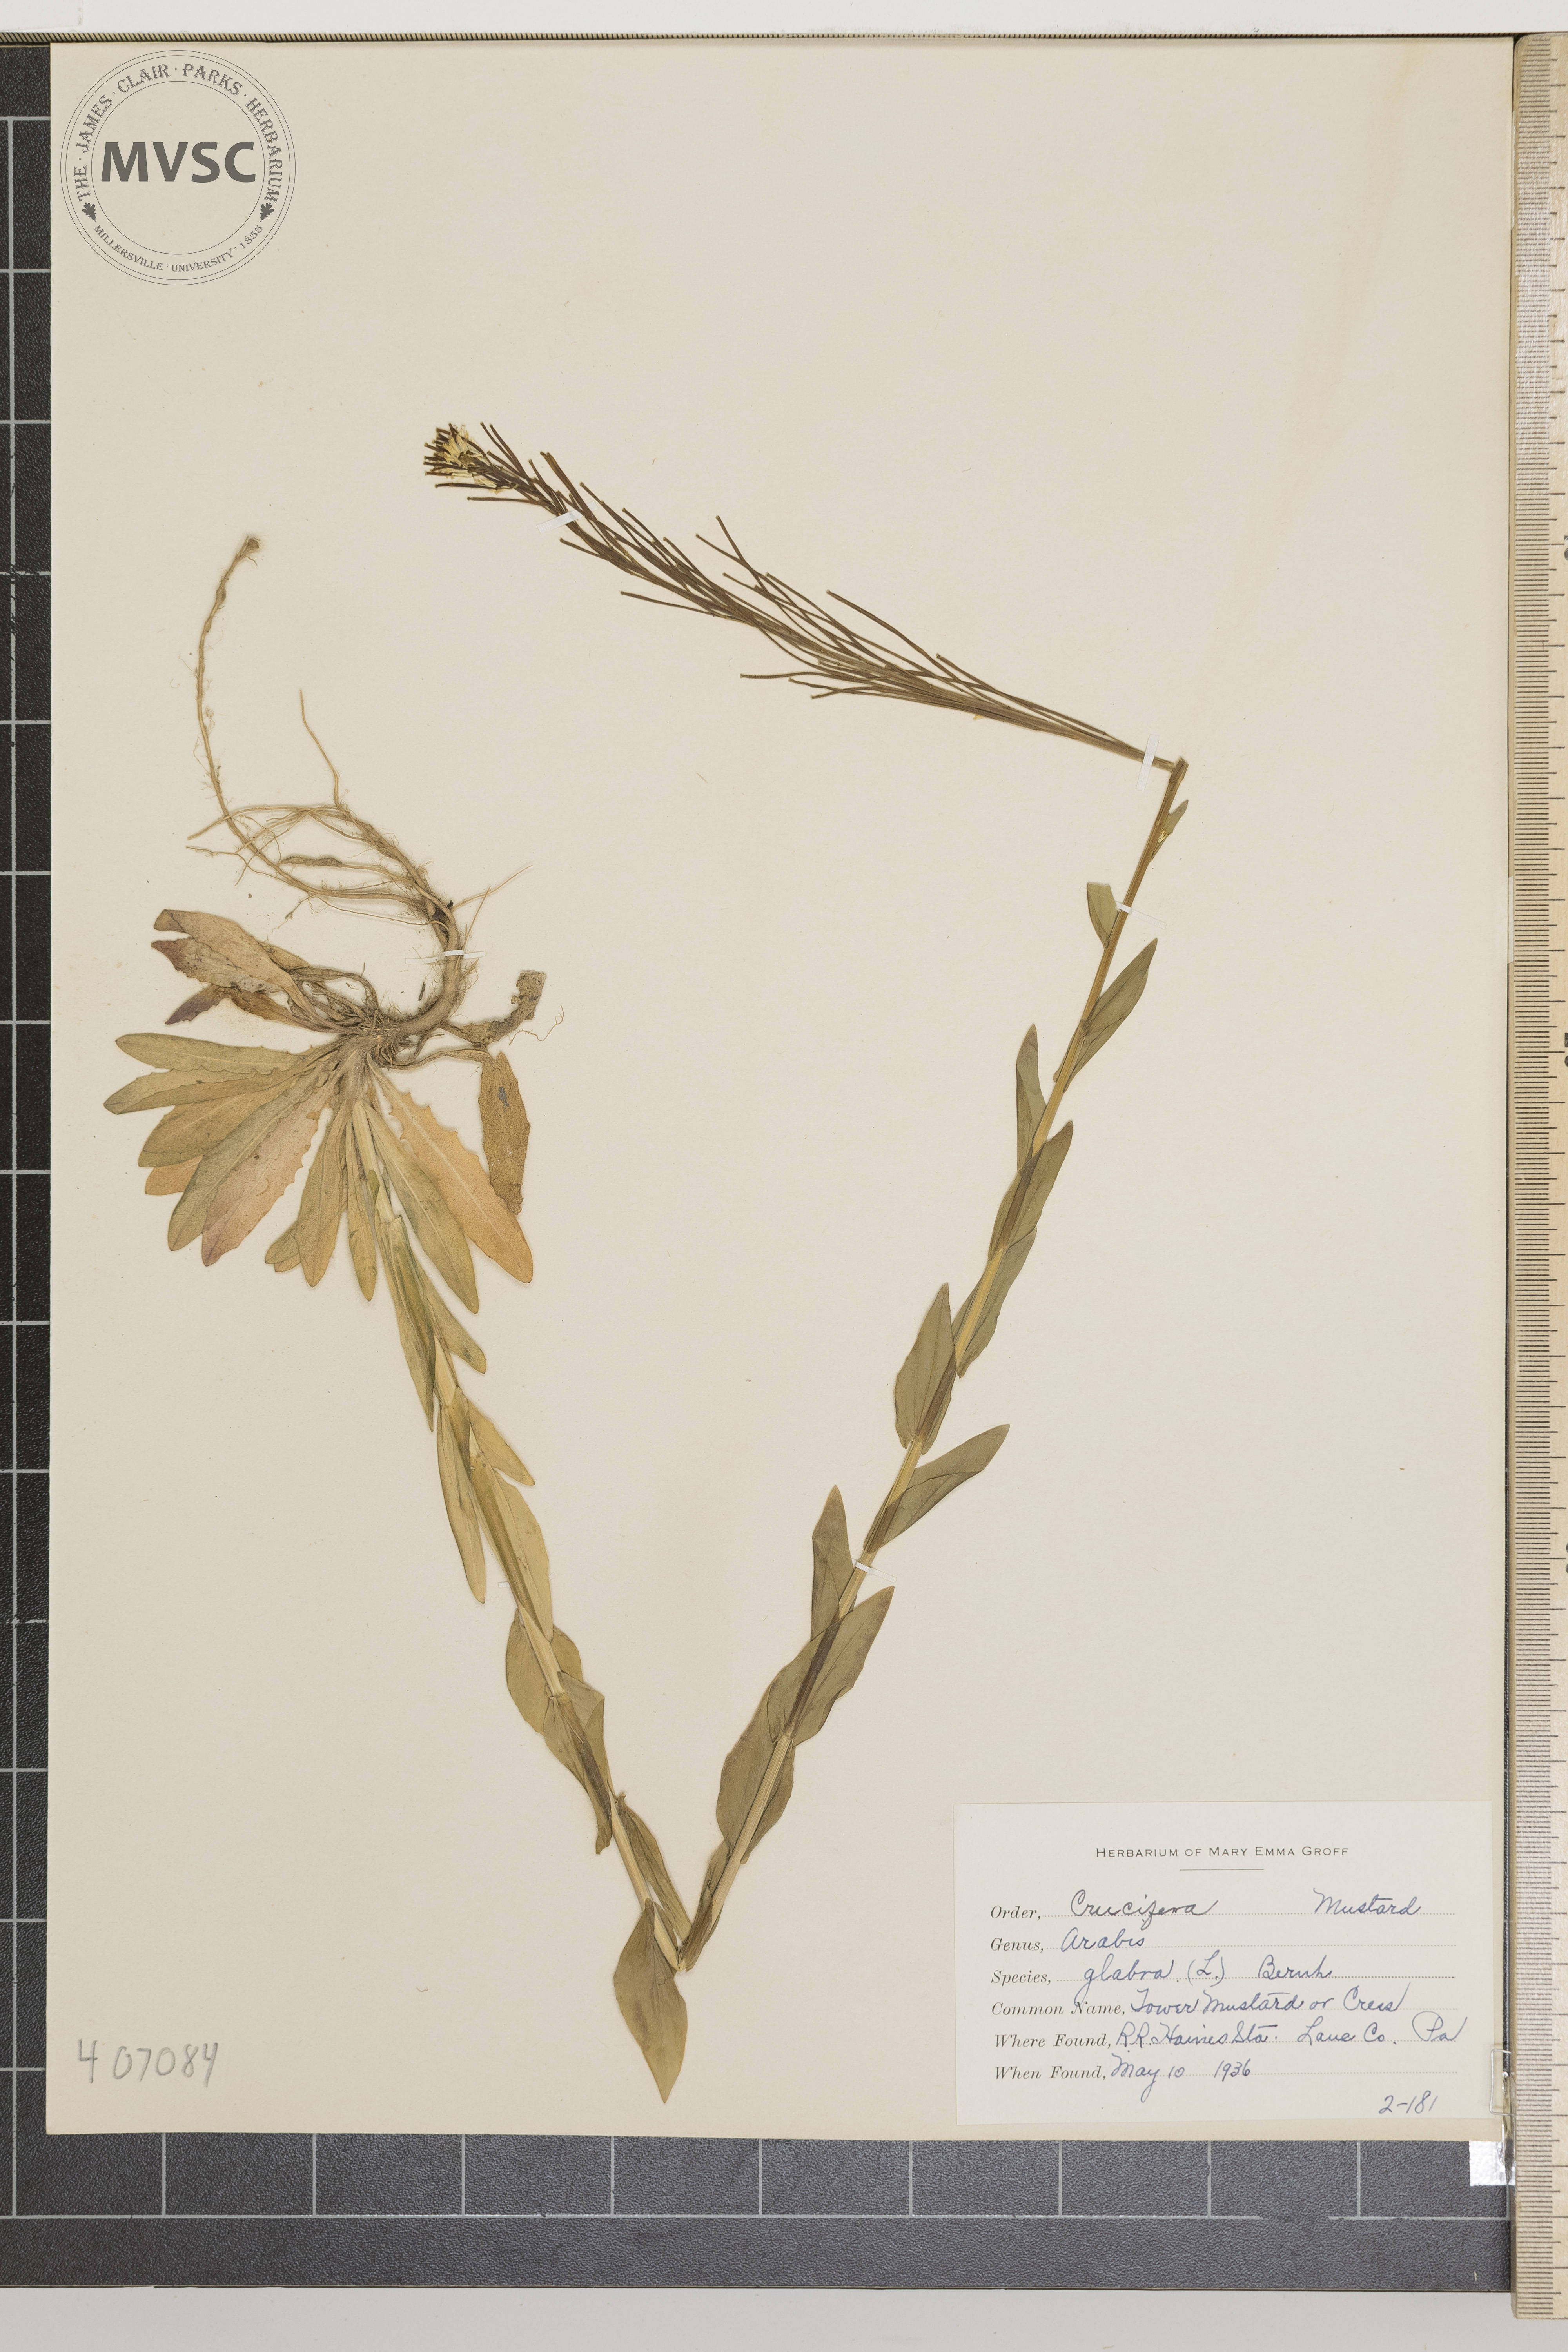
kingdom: Plantae
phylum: Tracheophyta
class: Magnoliopsida
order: Brassicales
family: Brassicaceae
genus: Turritis
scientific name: Turritis glabra
